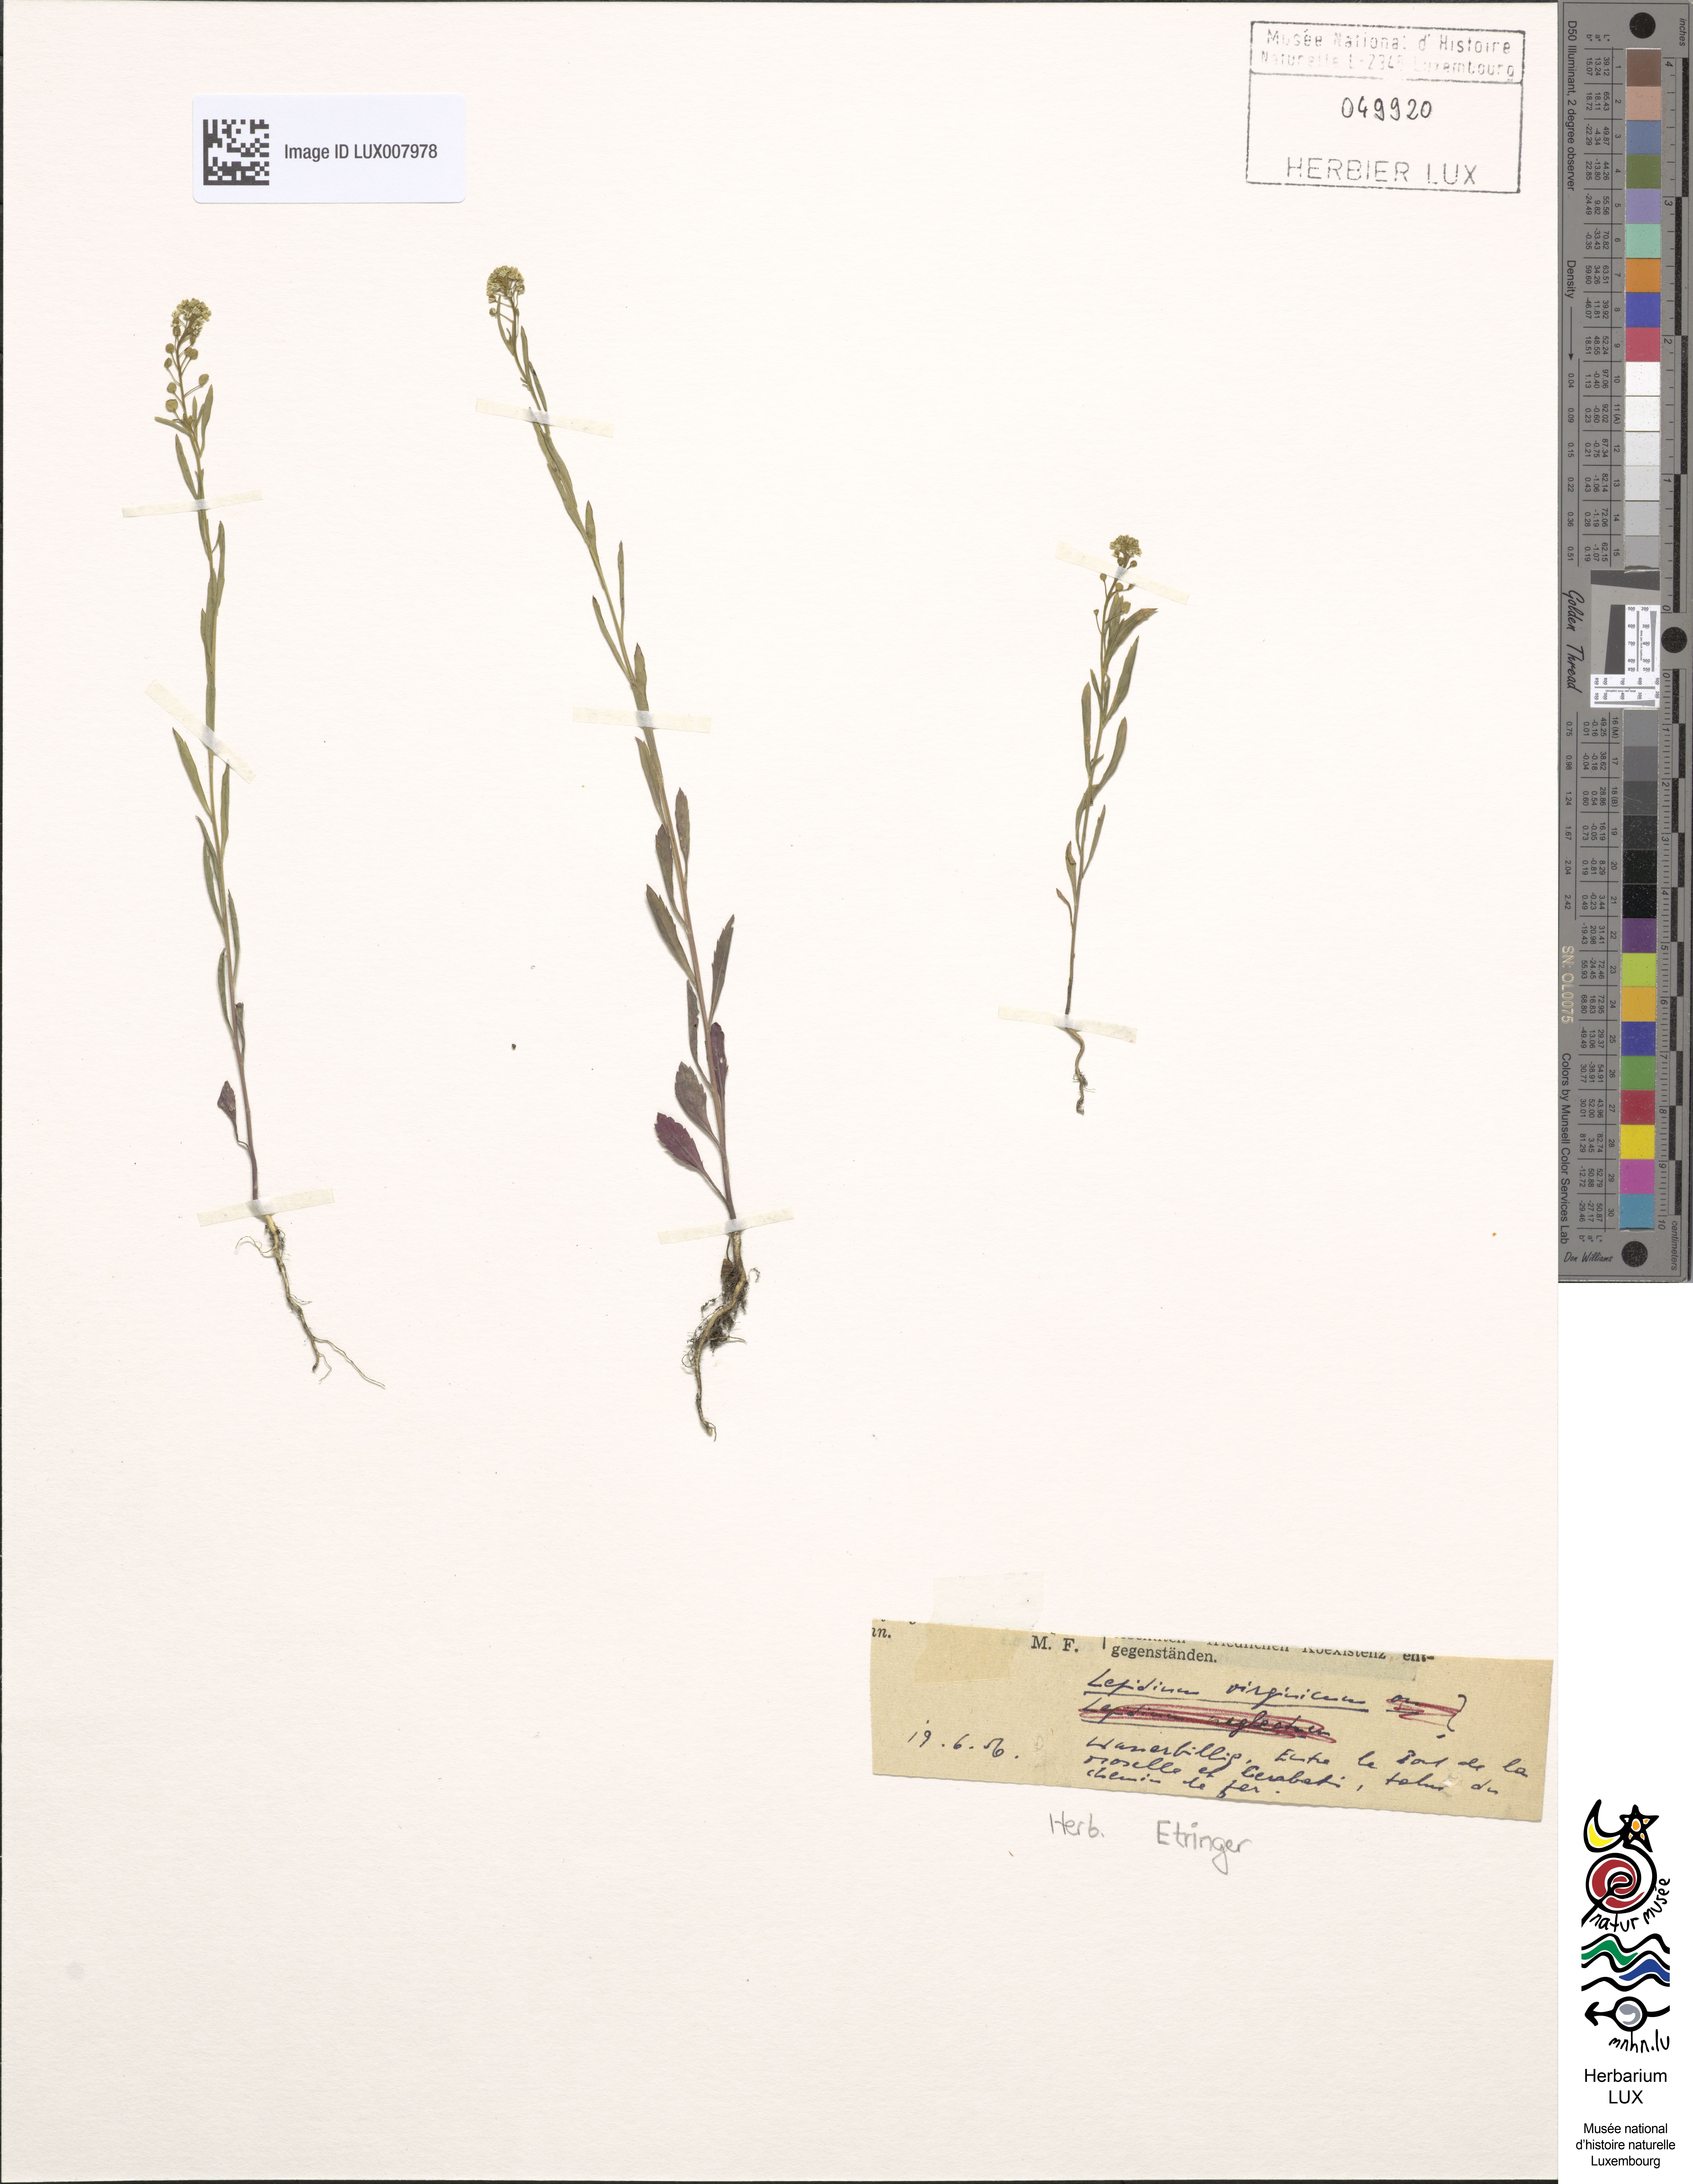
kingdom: Plantae
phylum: Tracheophyta
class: Magnoliopsida
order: Brassicales
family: Brassicaceae
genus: Lepidium
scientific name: Lepidium virginicum
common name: Least pepperwort
